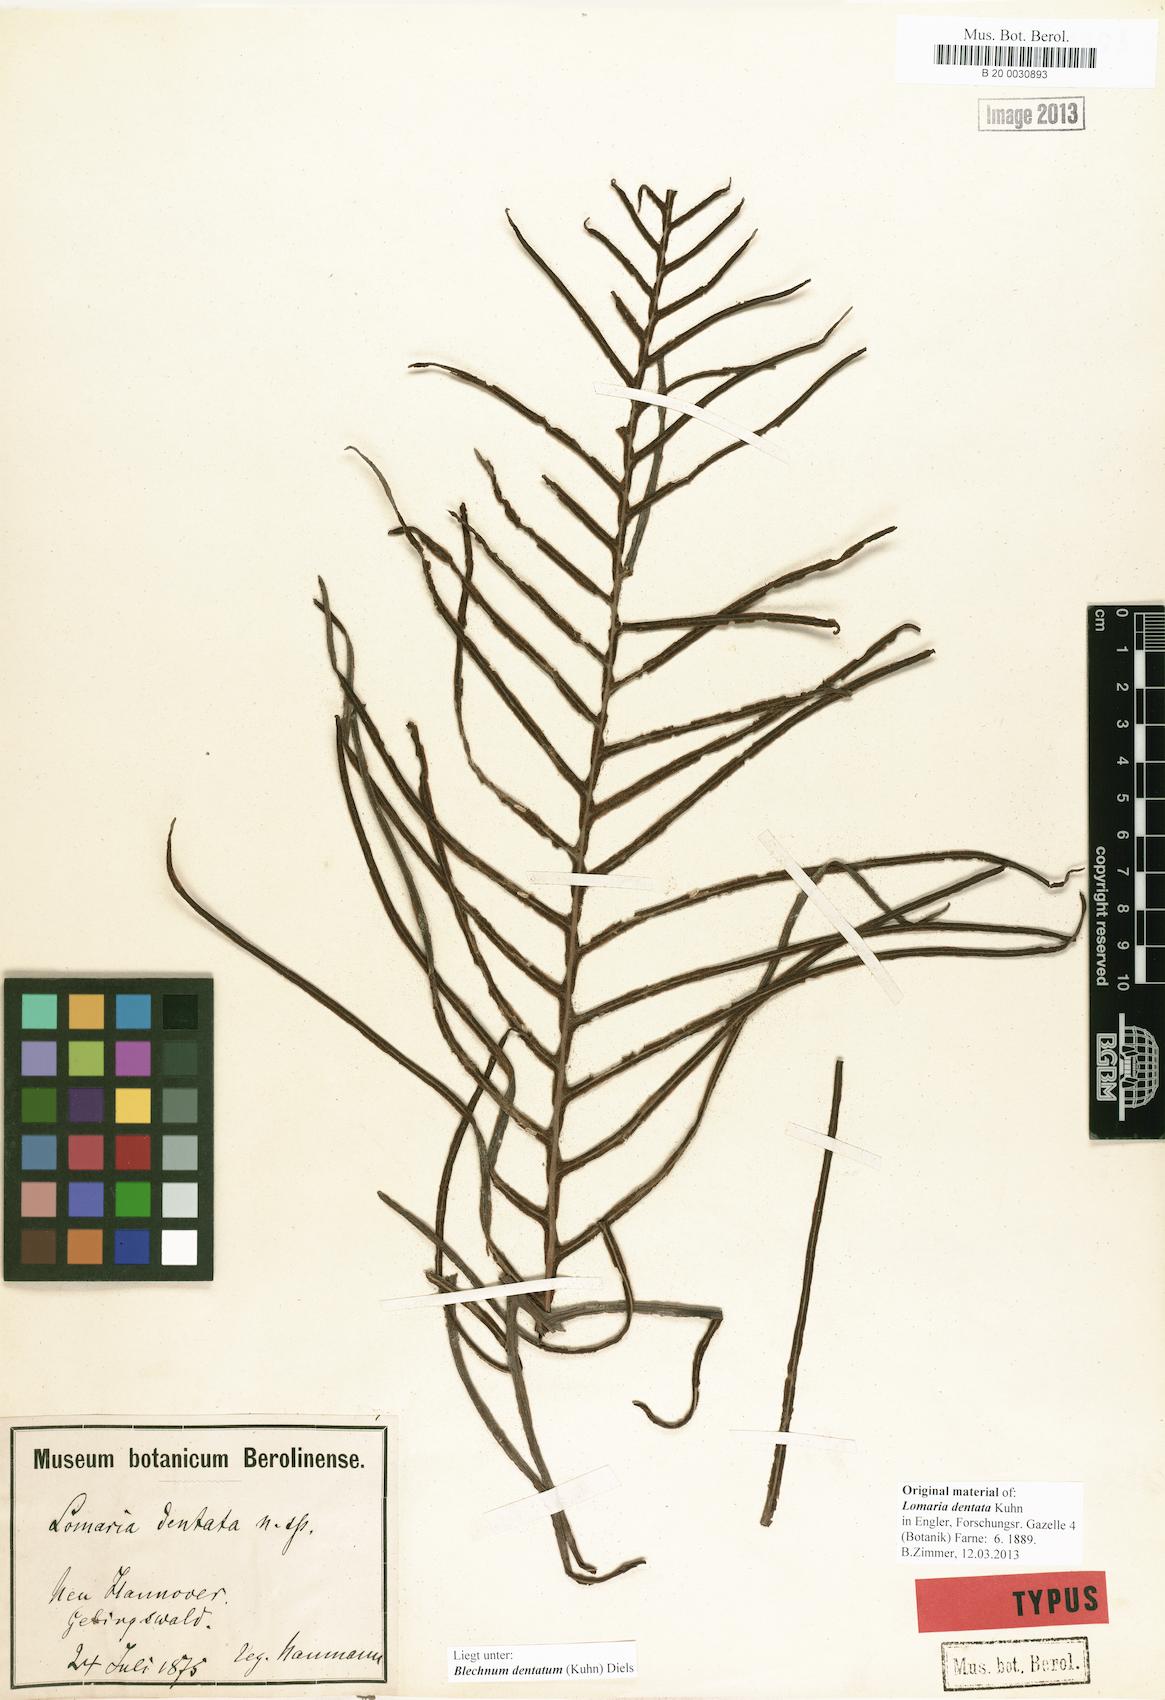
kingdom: Plantae
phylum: Tracheophyta
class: Polypodiopsida
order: Polypodiales
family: Blechnaceae
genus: Oceaniopteris
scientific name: Oceaniopteris vittata
